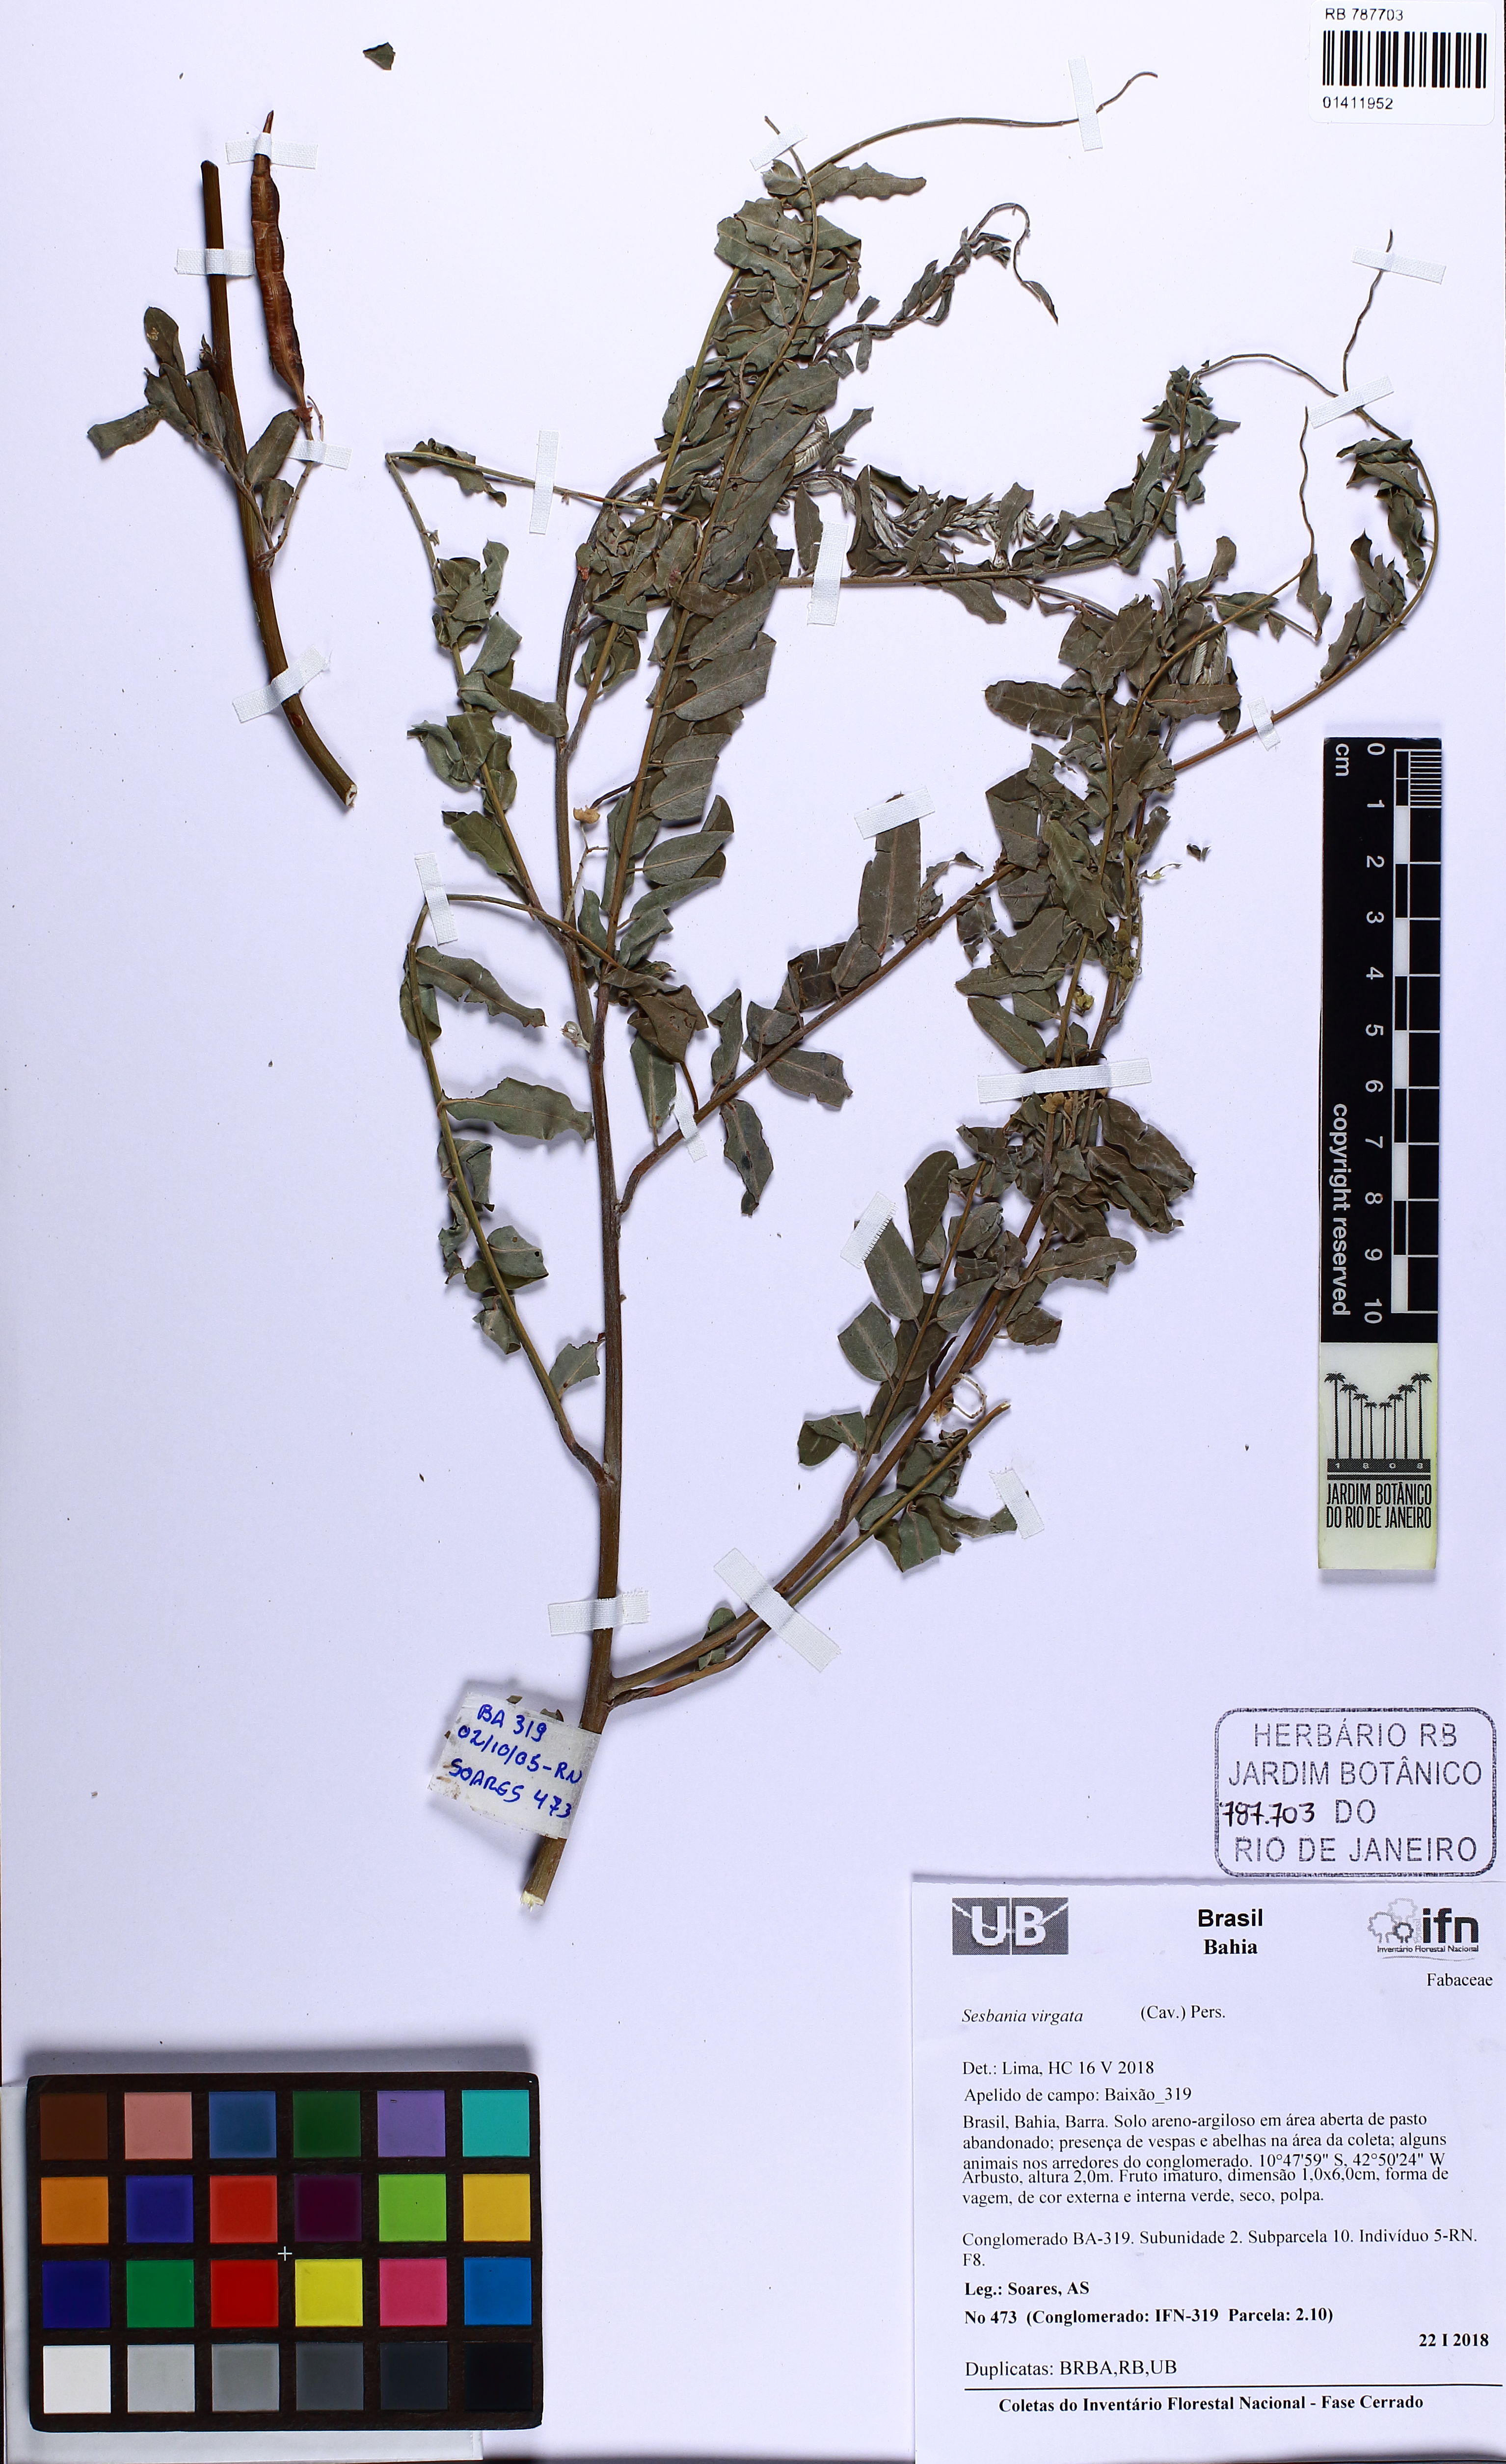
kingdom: Plantae
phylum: Tracheophyta
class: Magnoliopsida
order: Fabales
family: Fabaceae
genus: Sesbania
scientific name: Sesbania virgata
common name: Wand riverhemp
